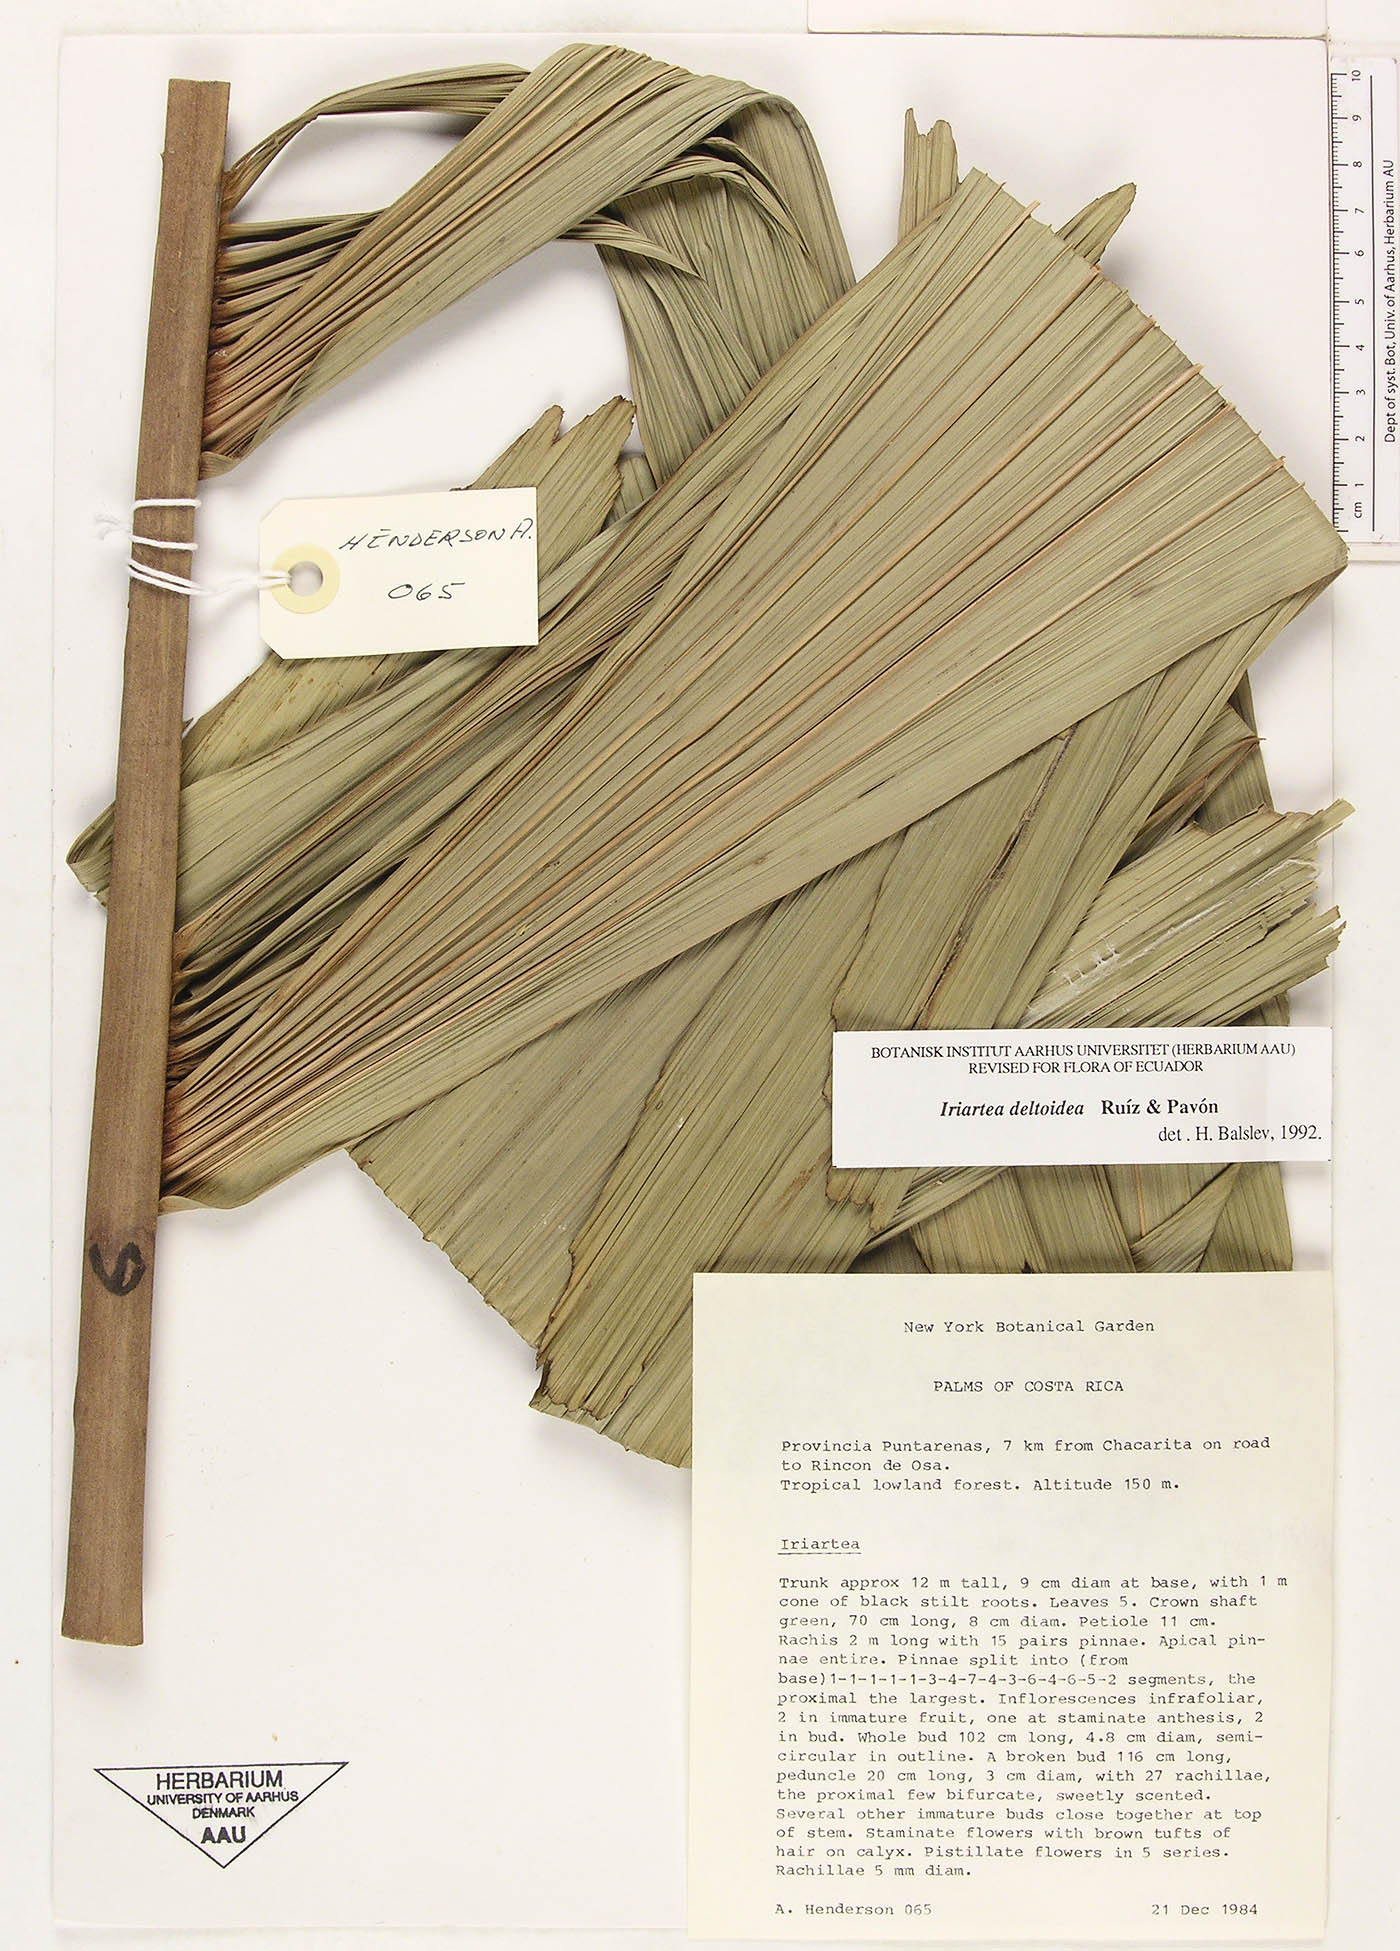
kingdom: Plantae
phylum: Tracheophyta
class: Liliopsida
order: Arecales
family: Arecaceae
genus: Iriartea
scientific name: Iriartea deltoidea
